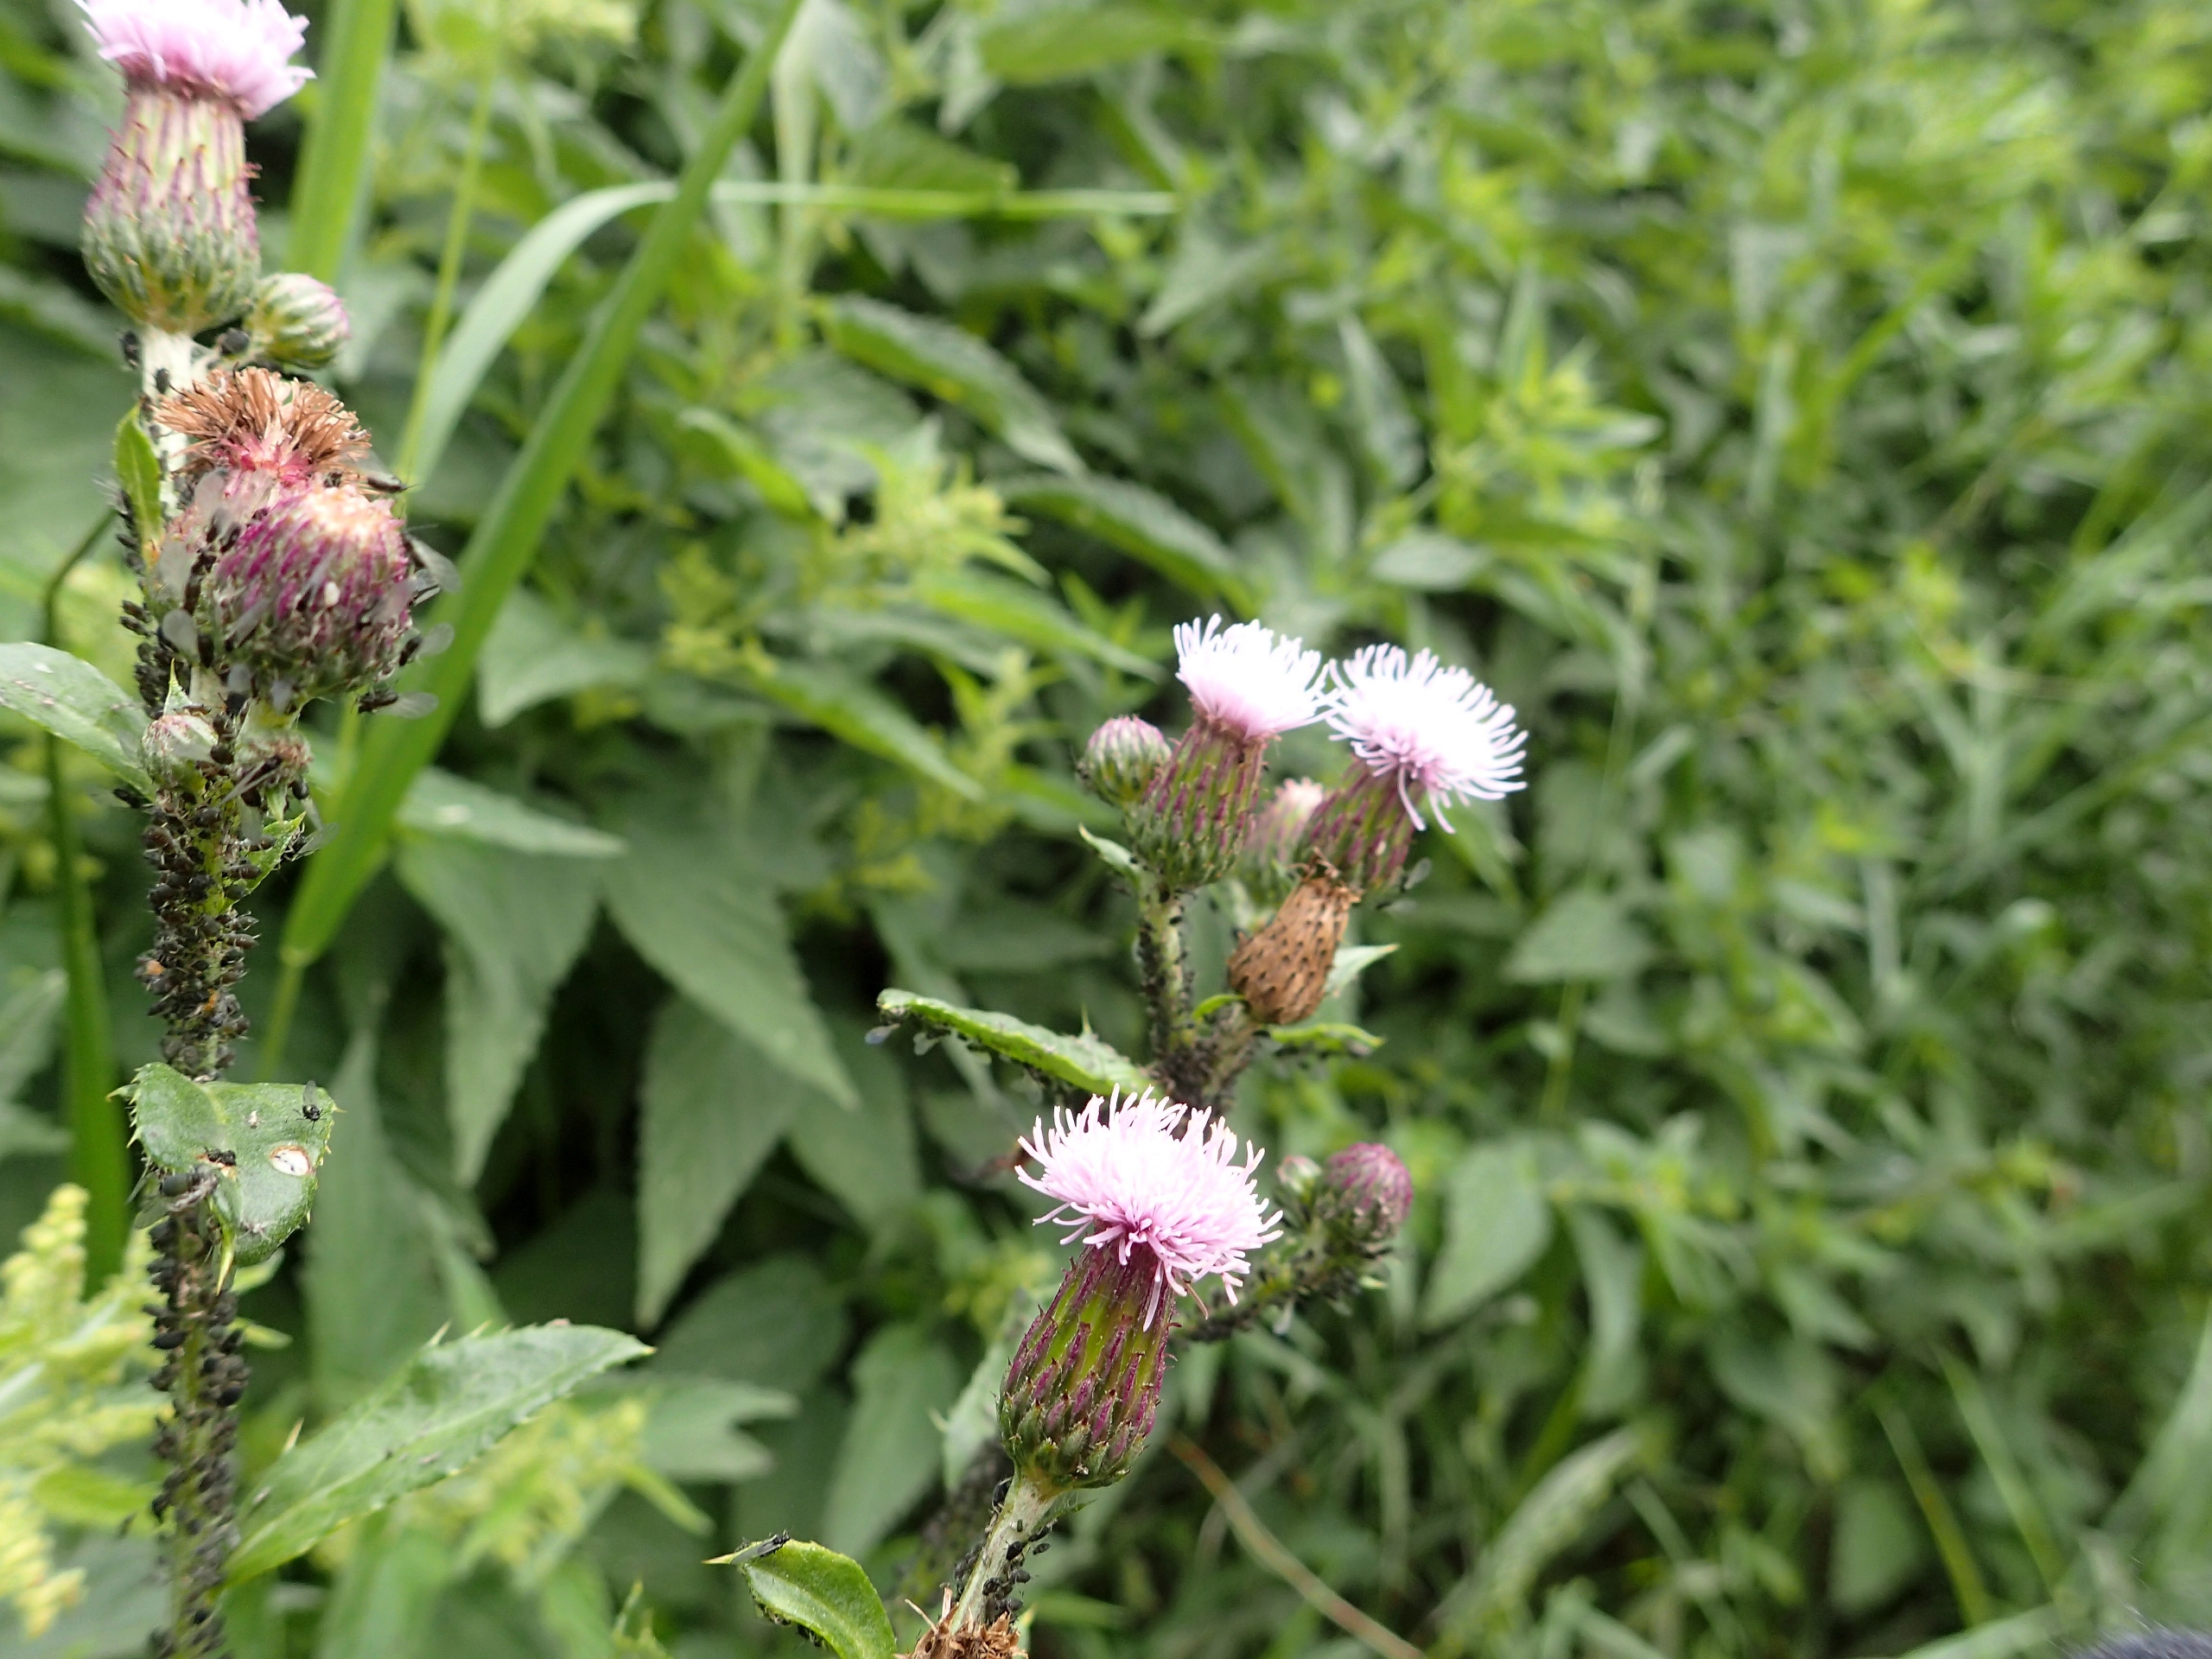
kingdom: Plantae
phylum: Tracheophyta
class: Magnoliopsida
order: Asterales
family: Asteraceae
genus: Cirsium
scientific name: Cirsium arvense
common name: Ager-tidsel
